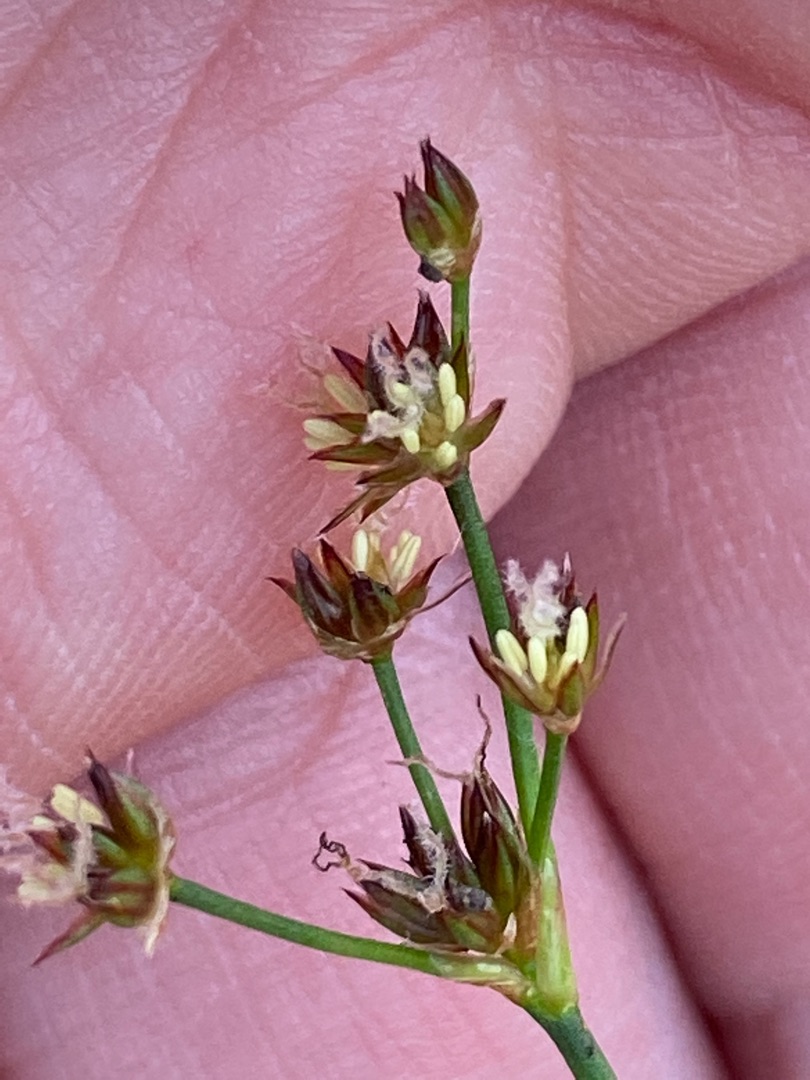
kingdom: Plantae
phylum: Tracheophyta
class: Liliopsida
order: Poales
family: Juncaceae
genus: Juncus
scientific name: Juncus articulatus
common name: Glanskapslet siv
